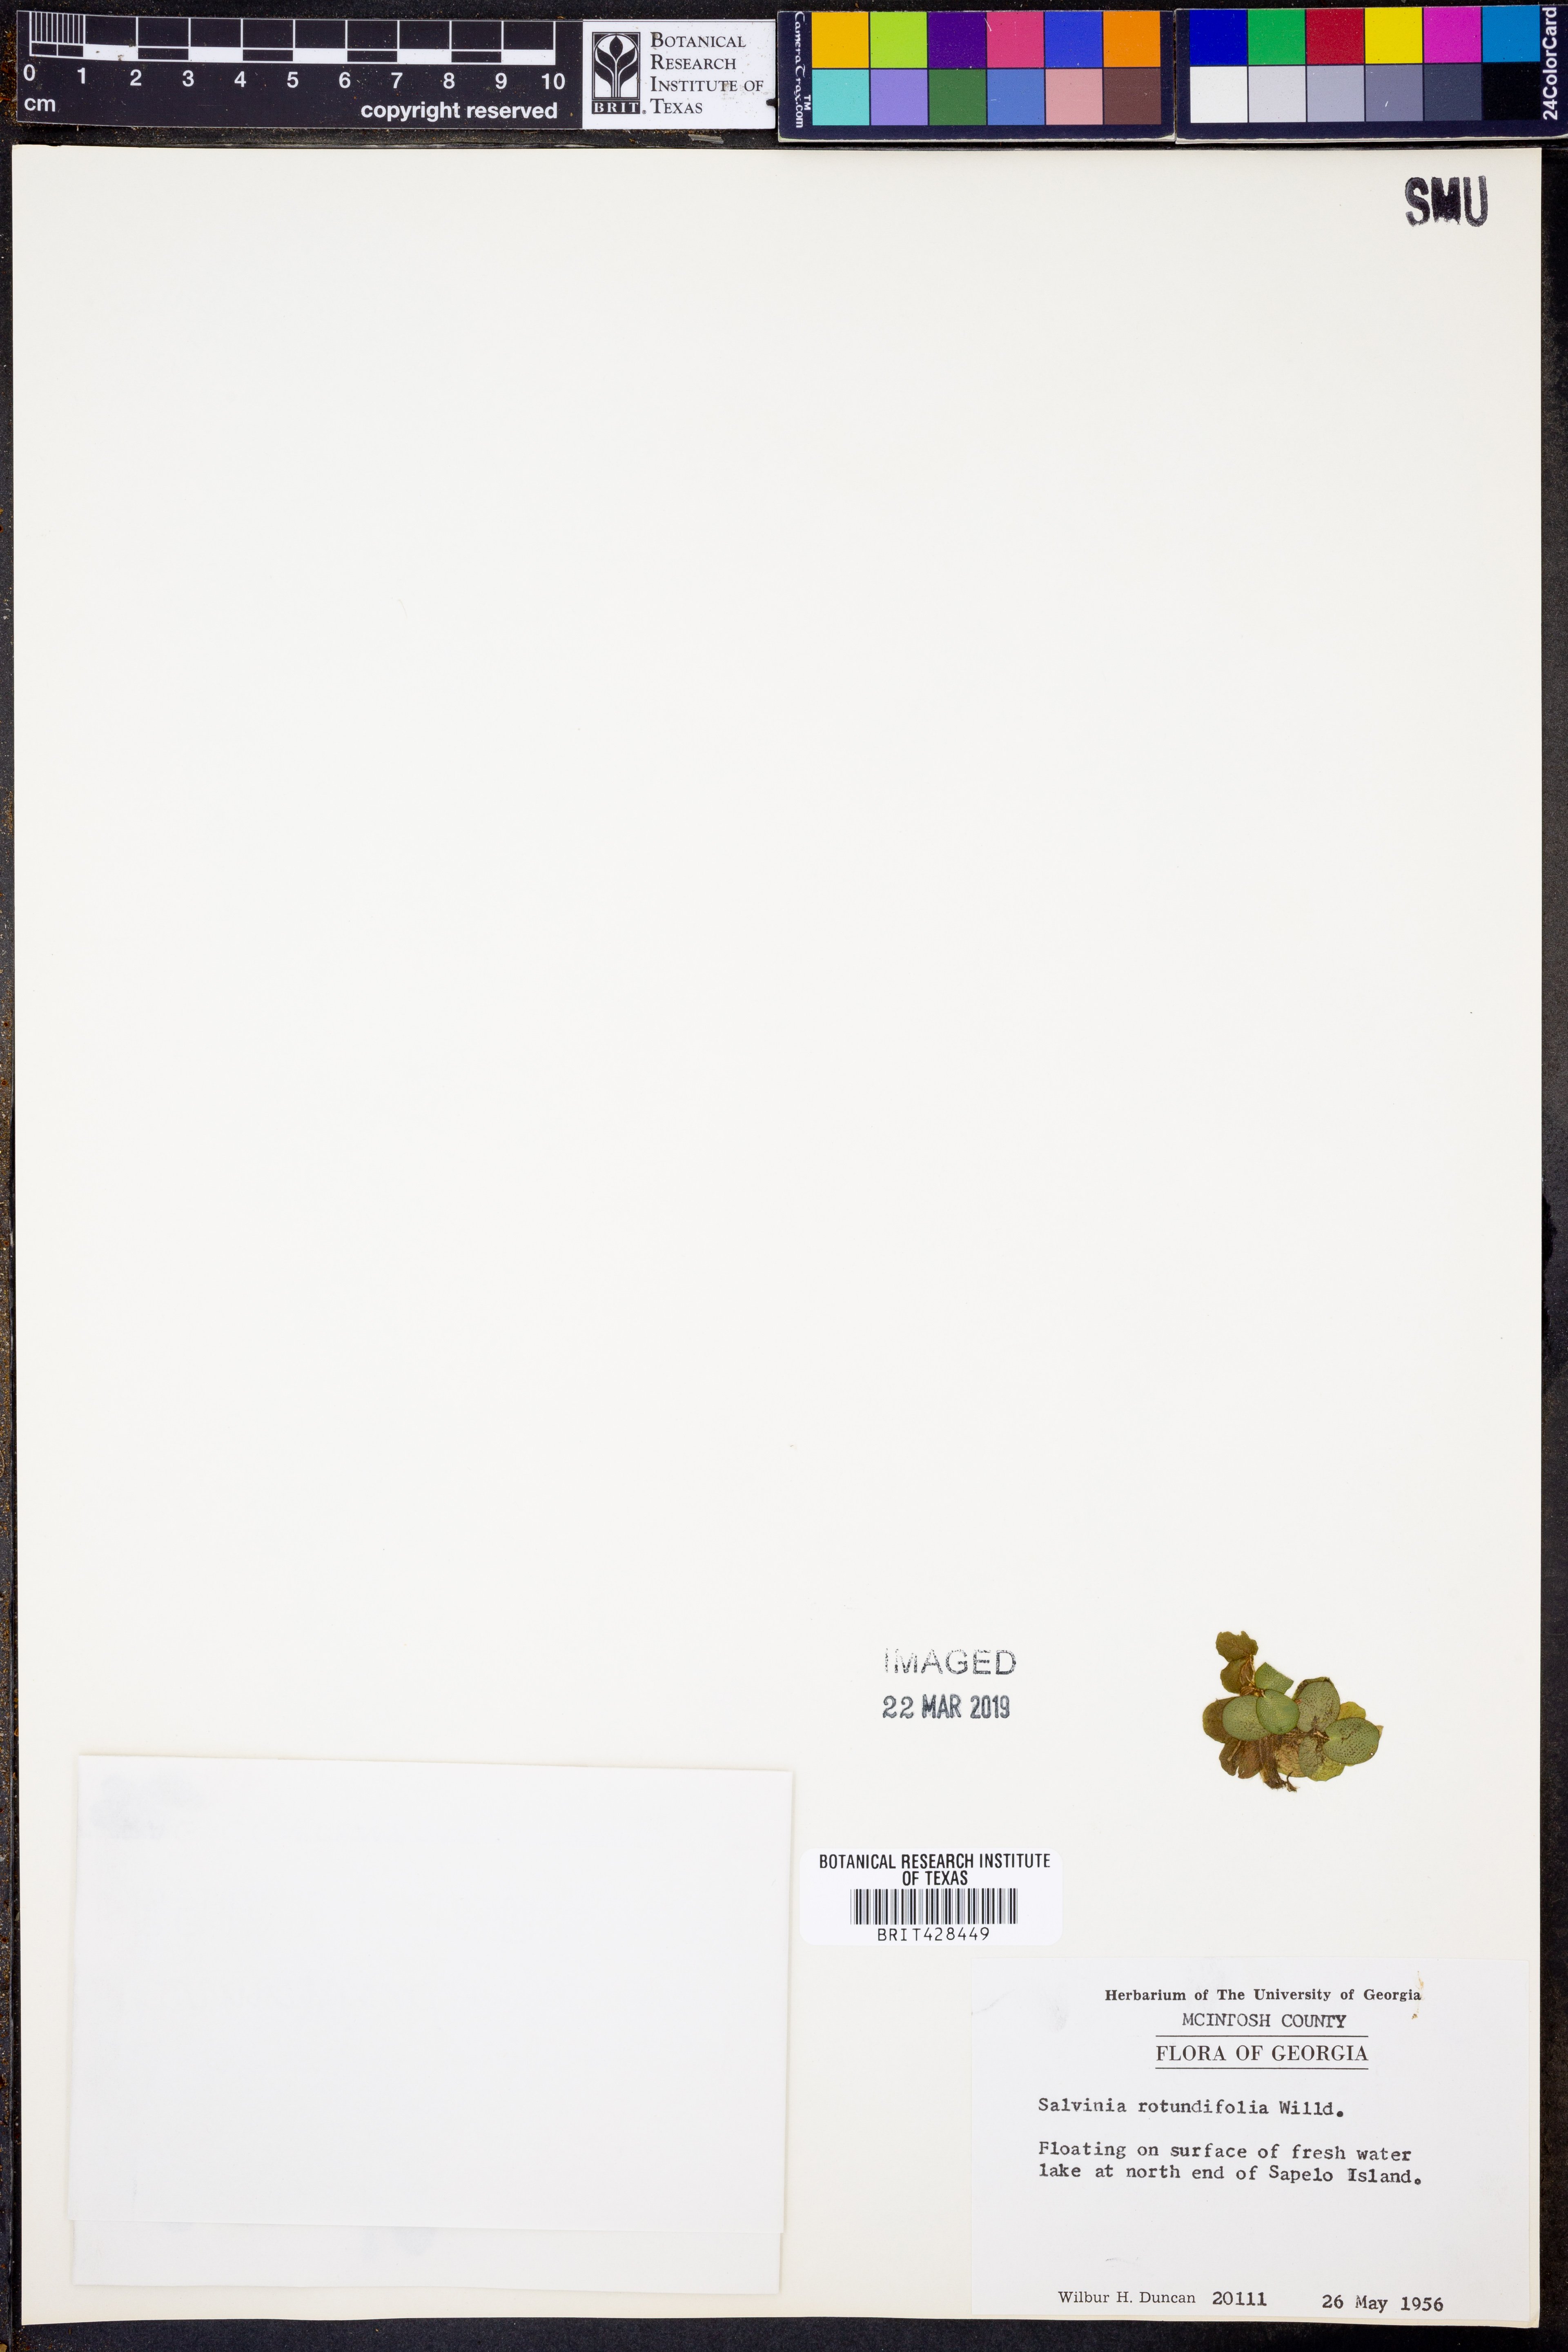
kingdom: Plantae
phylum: Tracheophyta
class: Polypodiopsida
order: Salviniales
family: Salviniaceae
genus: Salvinia
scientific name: Salvinia auriculata
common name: African payal
